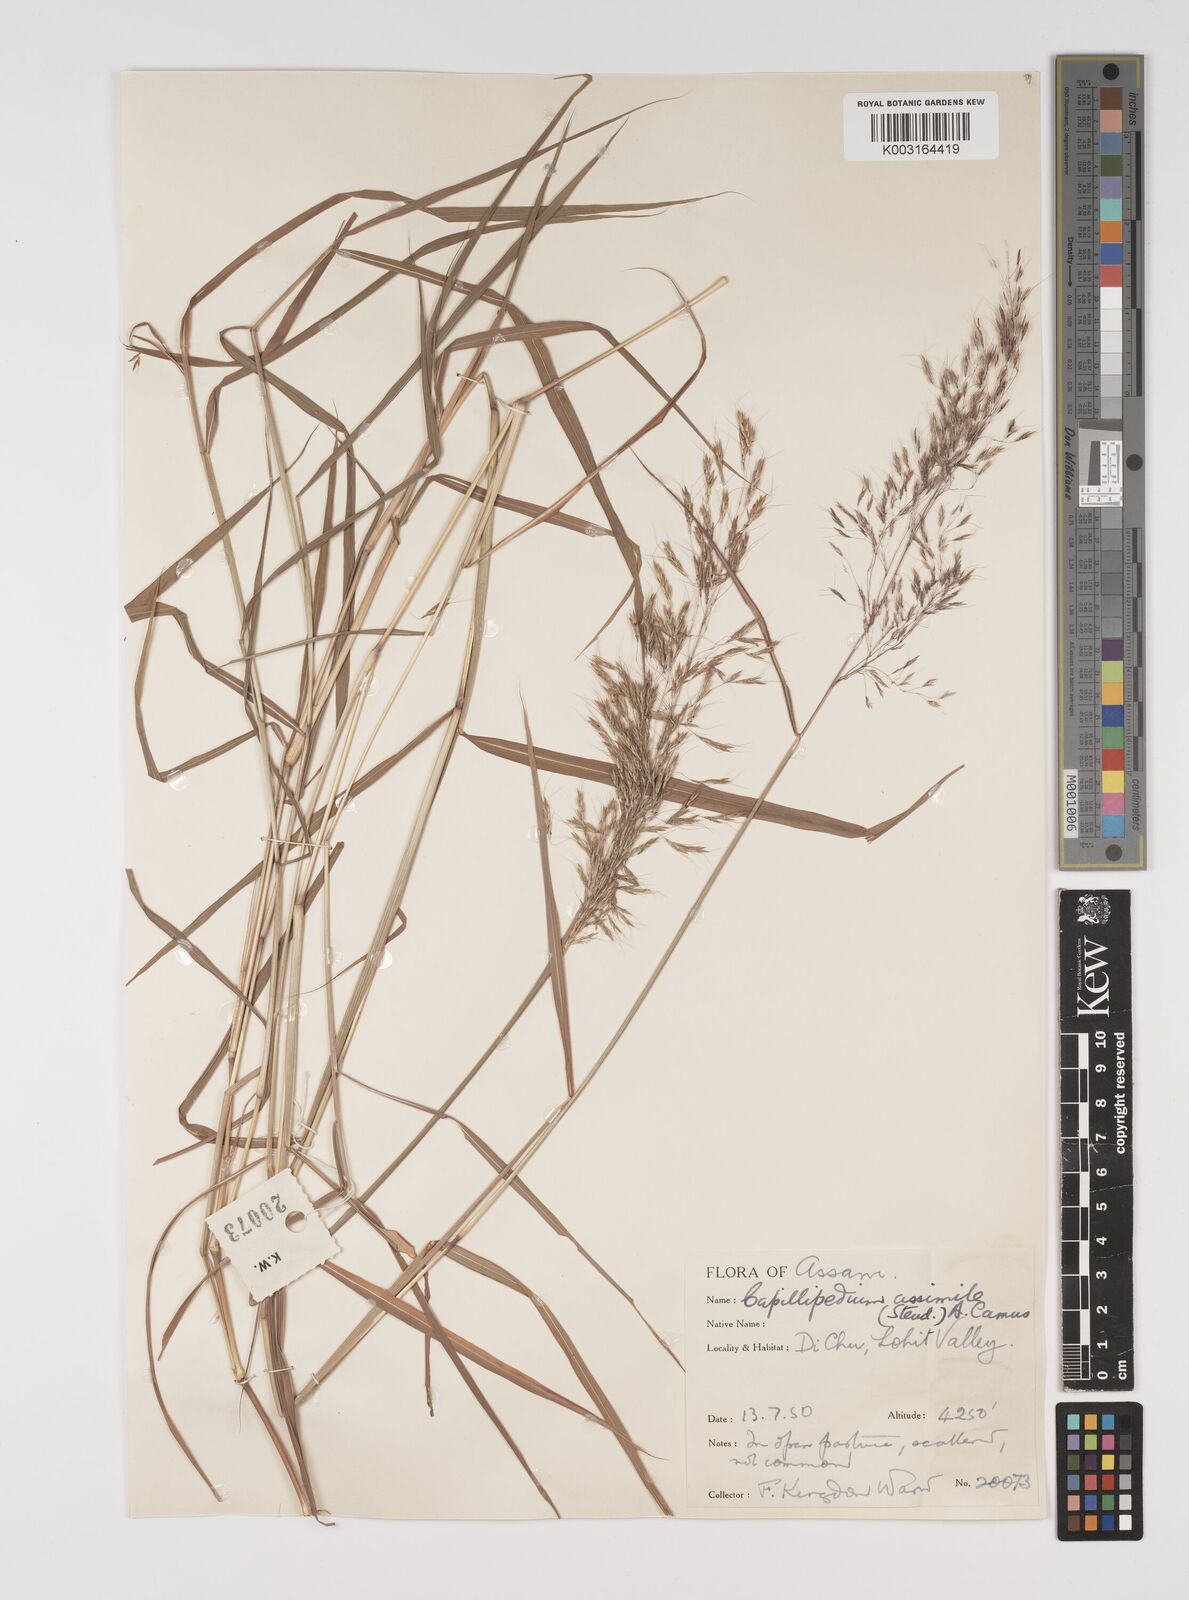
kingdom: Plantae
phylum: Tracheophyta
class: Liliopsida
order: Poales
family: Poaceae
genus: Capillipedium
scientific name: Capillipedium assimile
